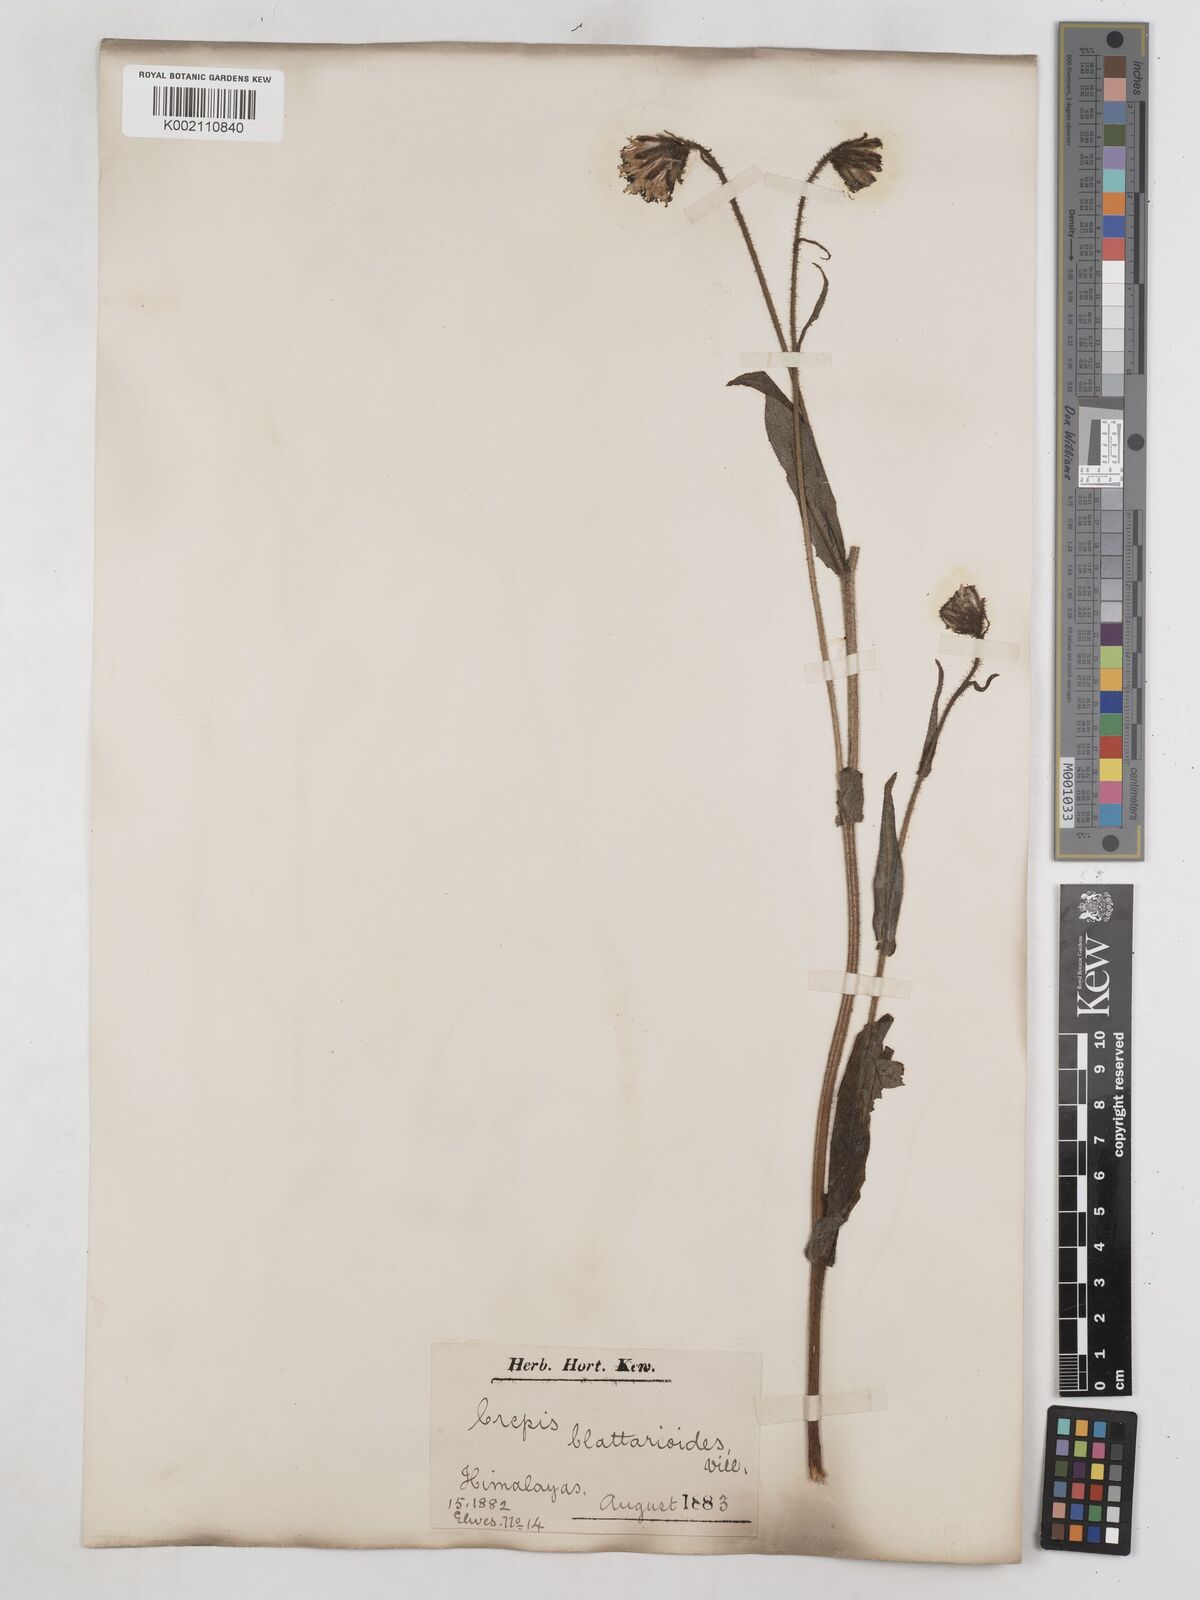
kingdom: Plantae
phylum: Tracheophyta
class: Magnoliopsida
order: Asterales
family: Asteraceae
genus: Crepis
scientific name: Crepis blattarioides
